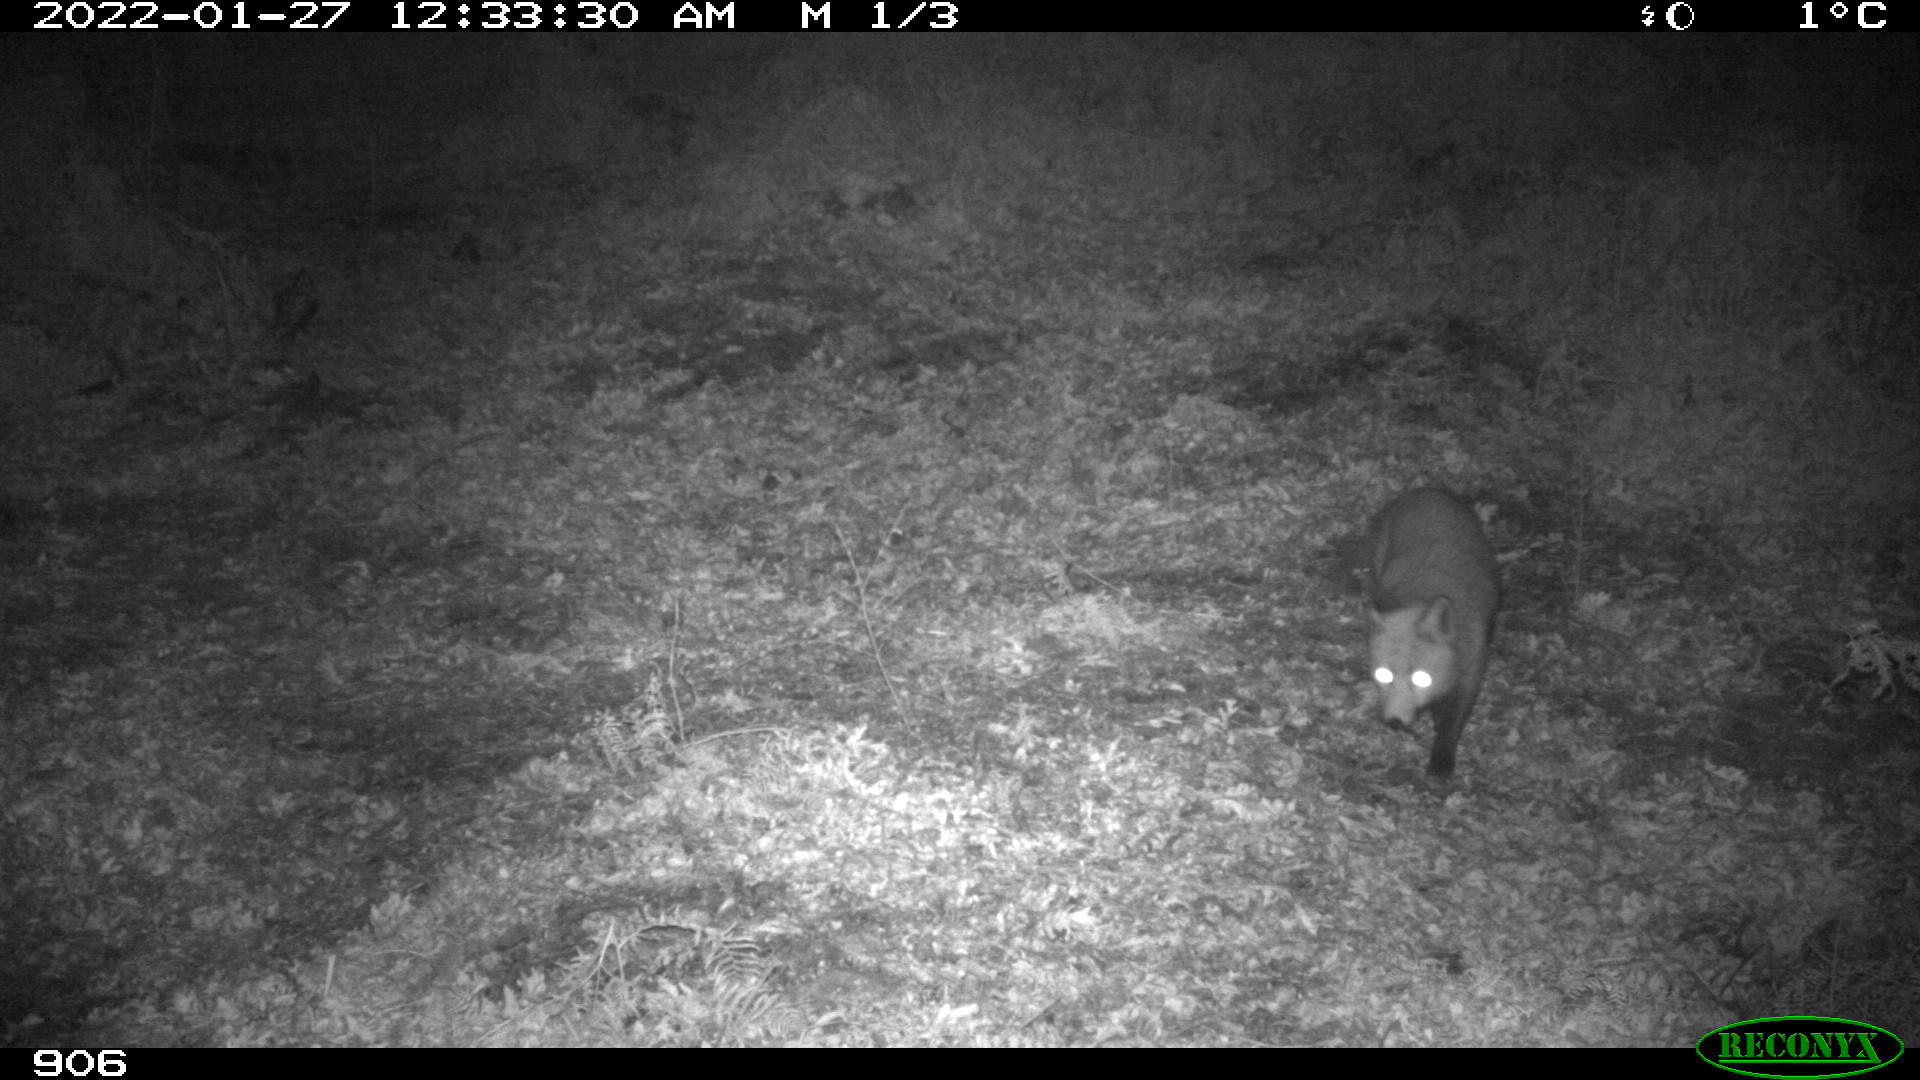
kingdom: Animalia
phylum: Chordata
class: Mammalia
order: Carnivora
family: Canidae
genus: Vulpes
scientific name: Vulpes vulpes
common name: Red fox
